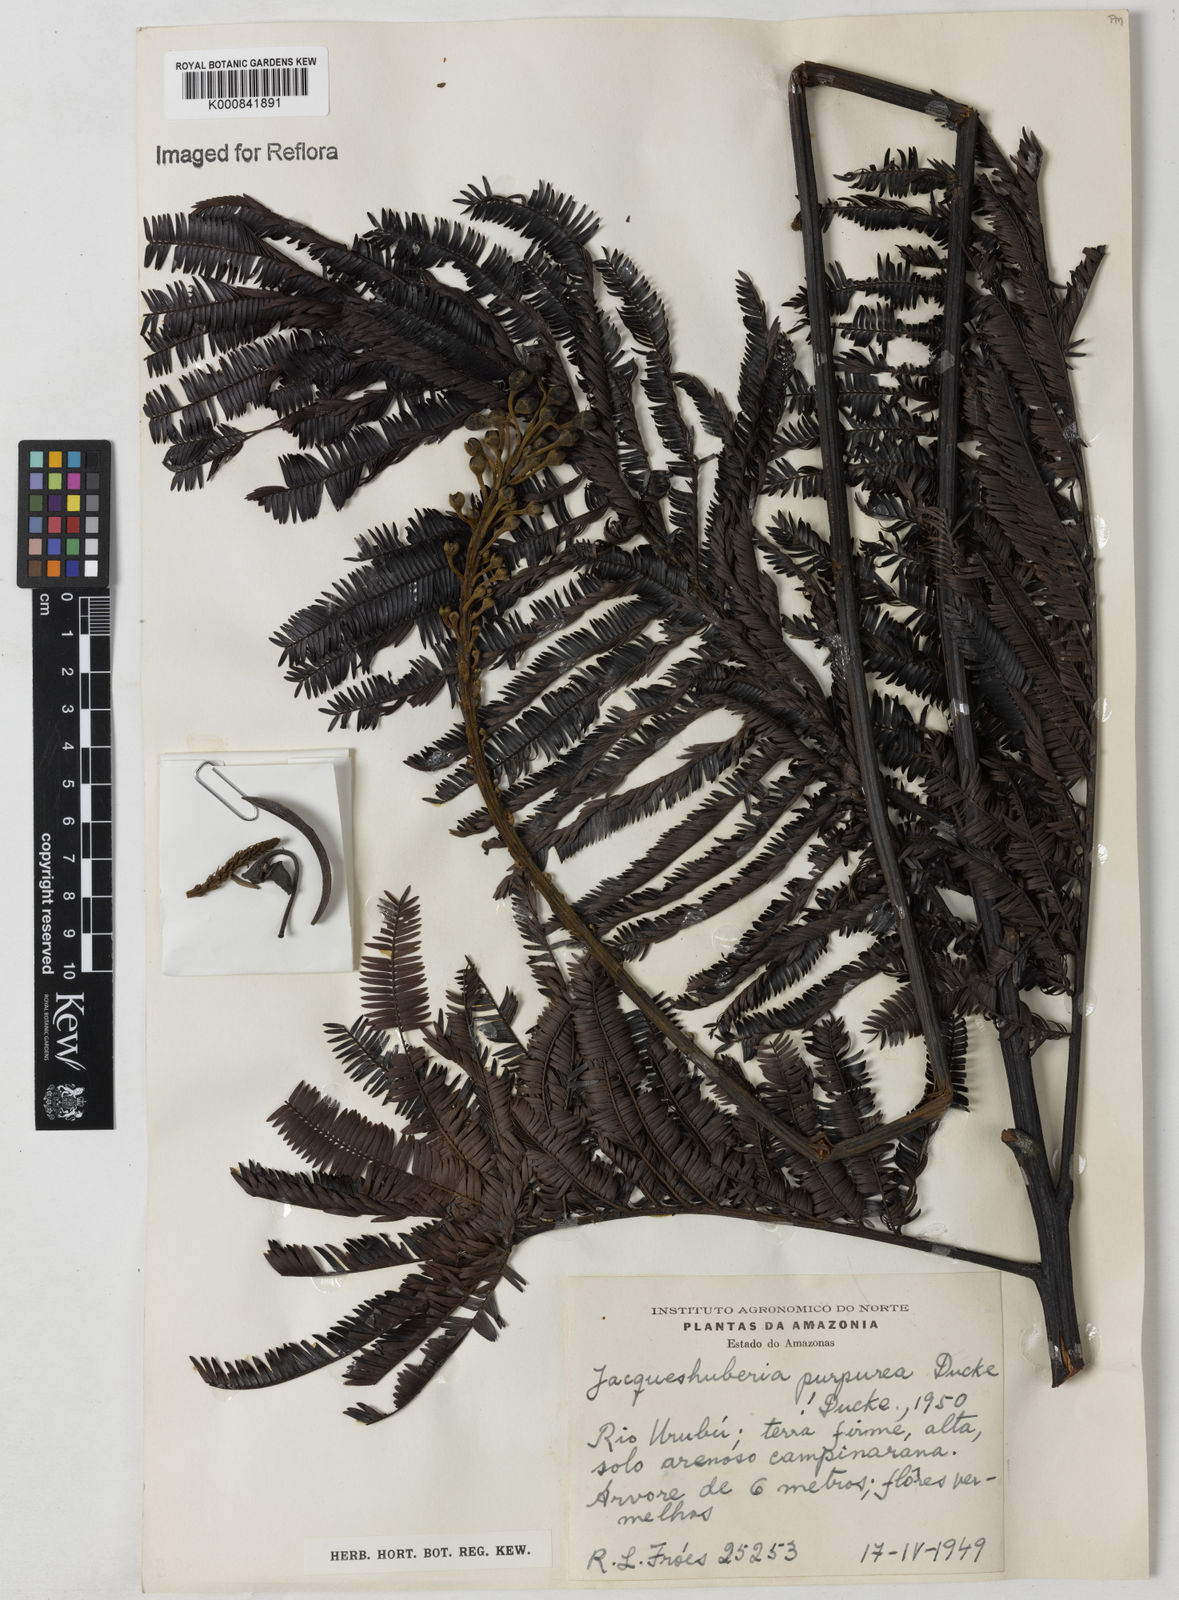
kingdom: Plantae
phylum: Tracheophyta
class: Magnoliopsida
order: Fabales
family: Fabaceae
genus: Jacqueshuberia
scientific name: Jacqueshuberia purpurea
